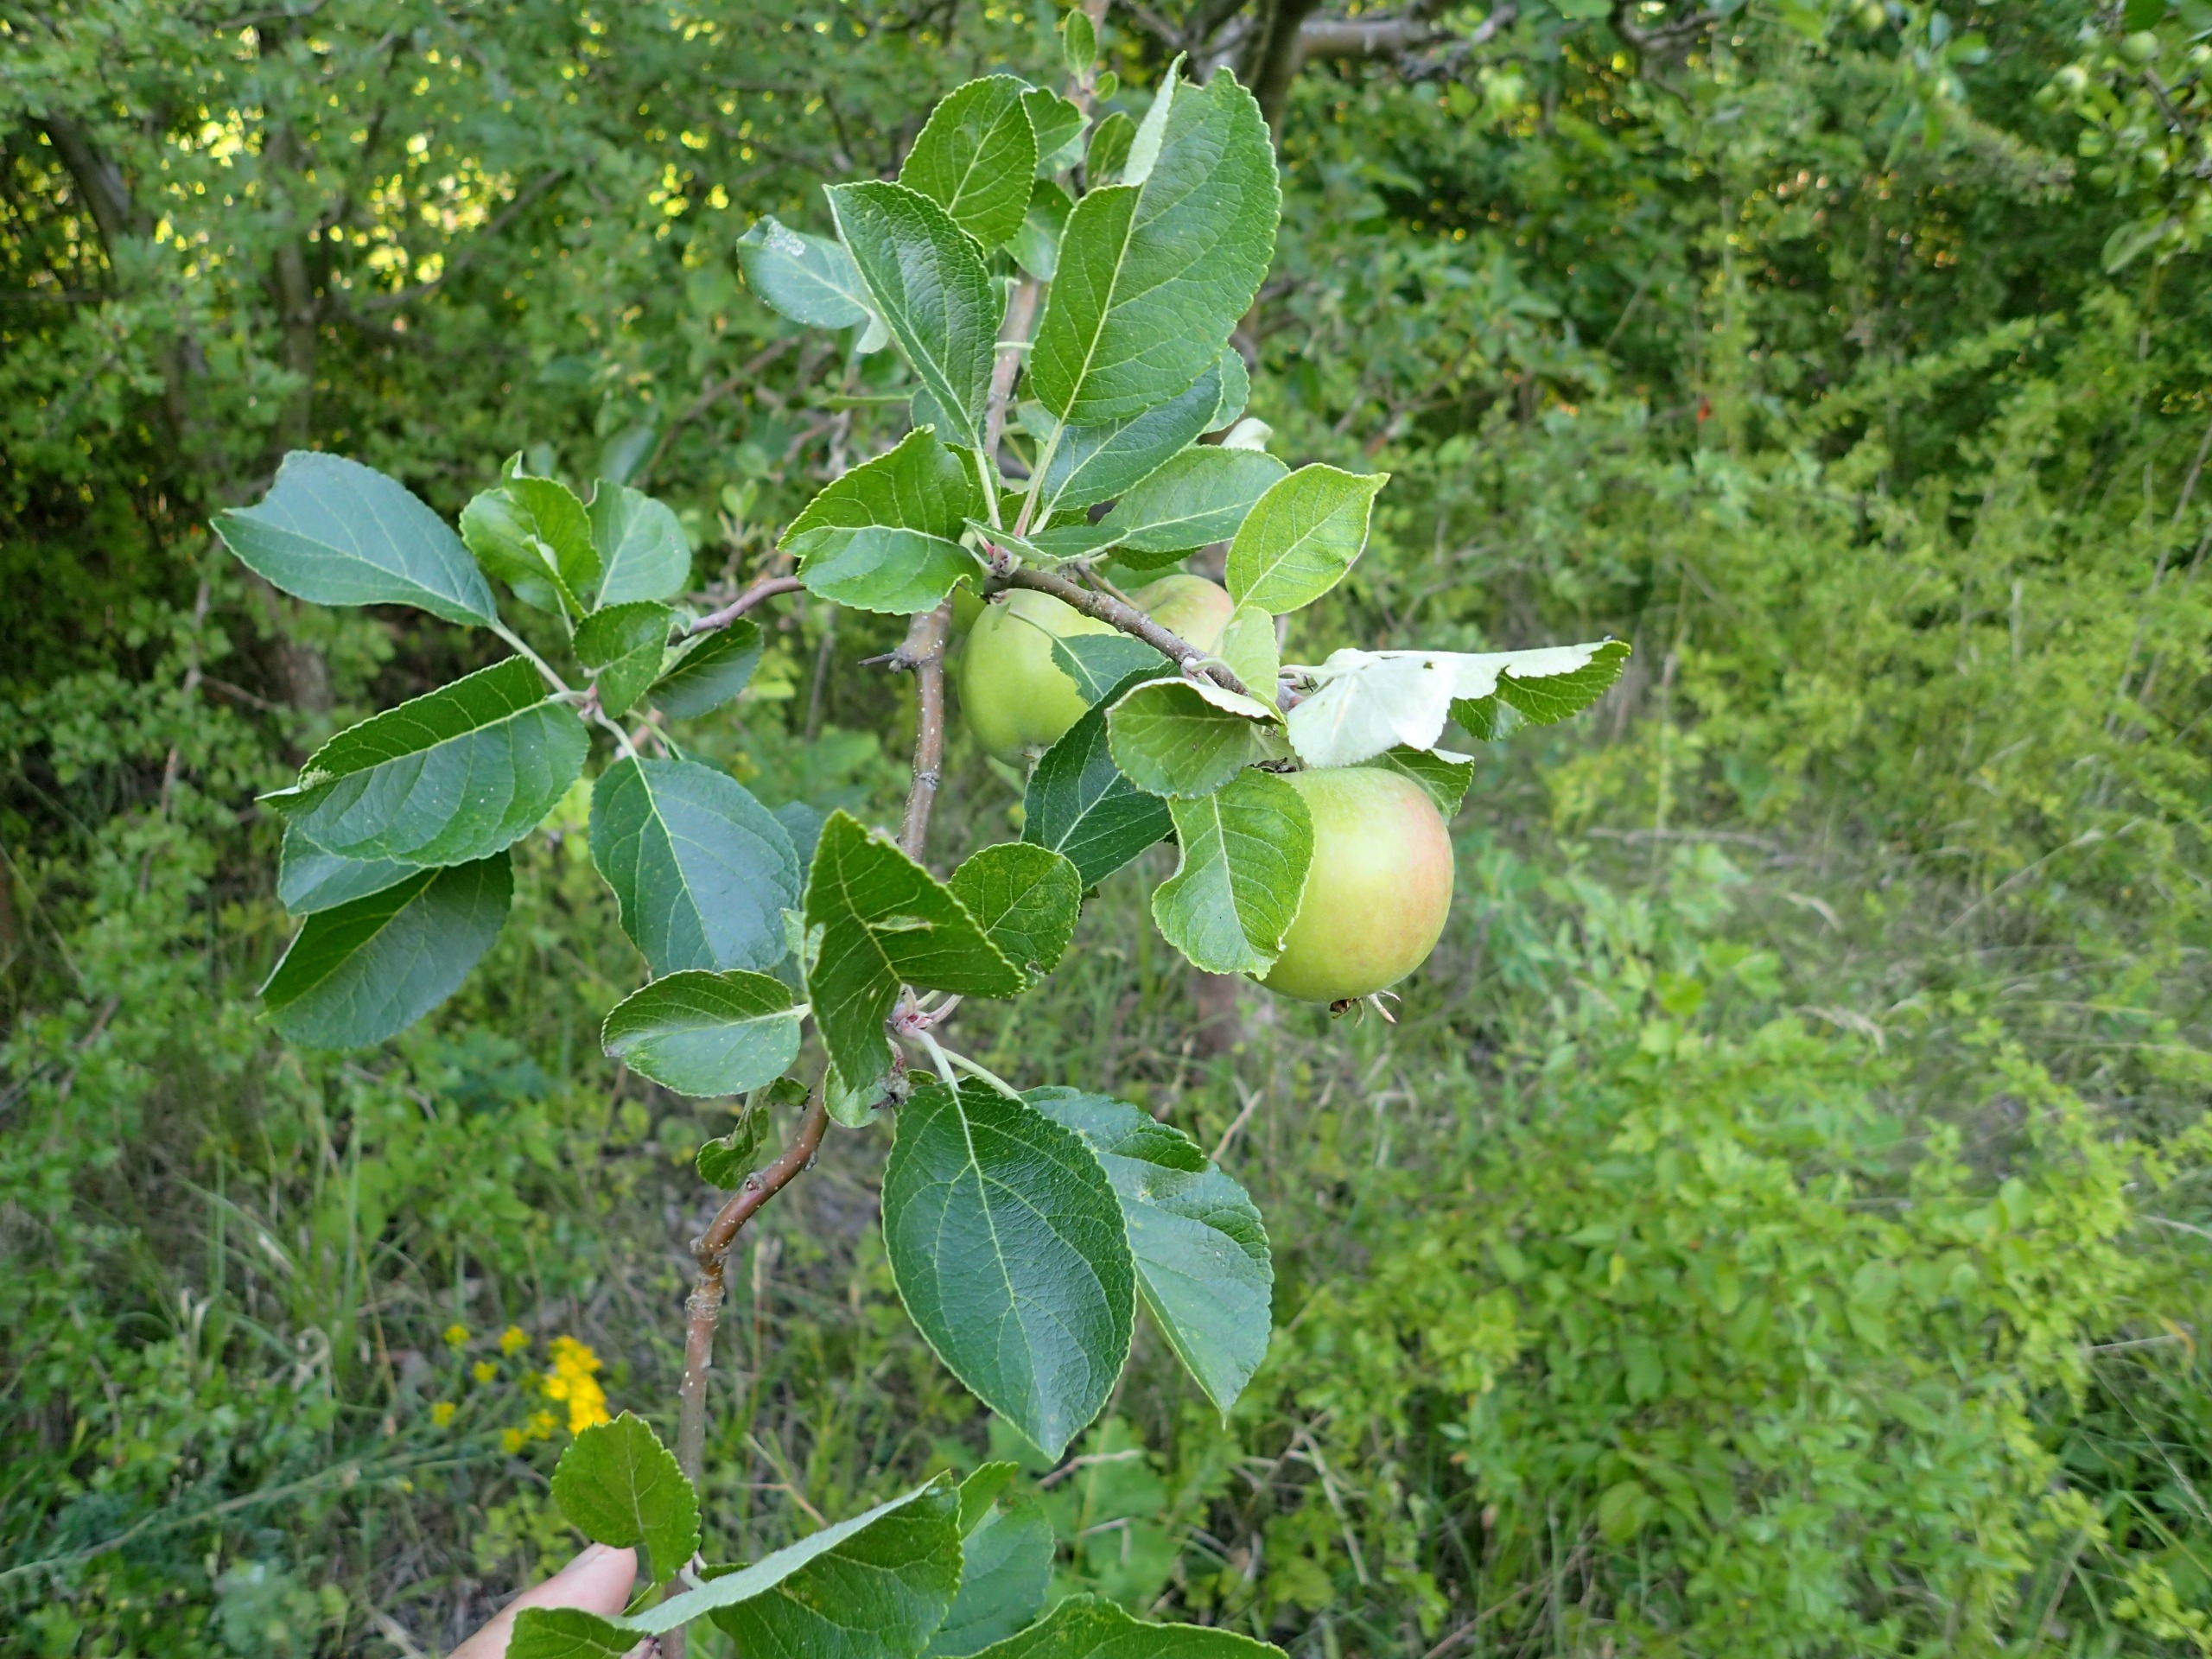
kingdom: Plantae
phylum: Tracheophyta
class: Magnoliopsida
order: Rosales
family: Rosaceae
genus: Malus
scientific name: Malus domestica
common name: Sød-æble
